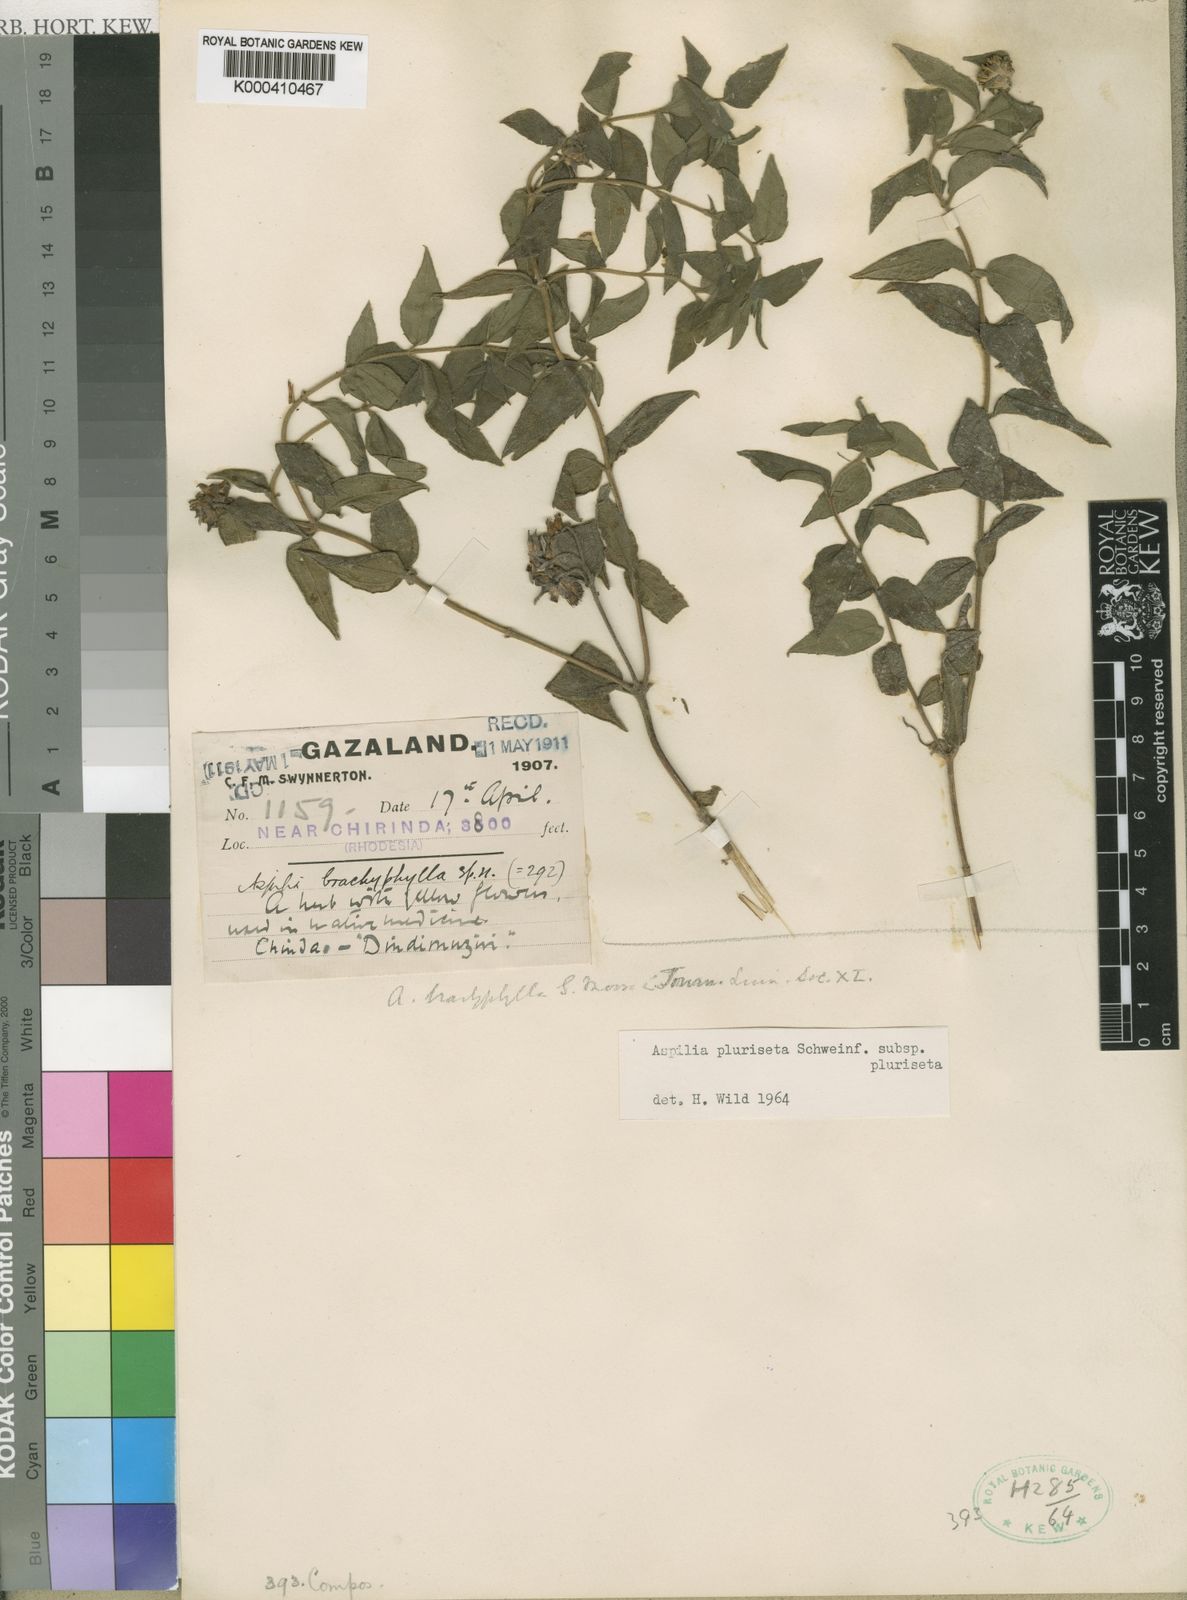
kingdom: Plantae
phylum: Tracheophyta
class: Magnoliopsida
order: Asterales
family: Asteraceae
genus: Aspilia
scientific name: Aspilia pluriseta
